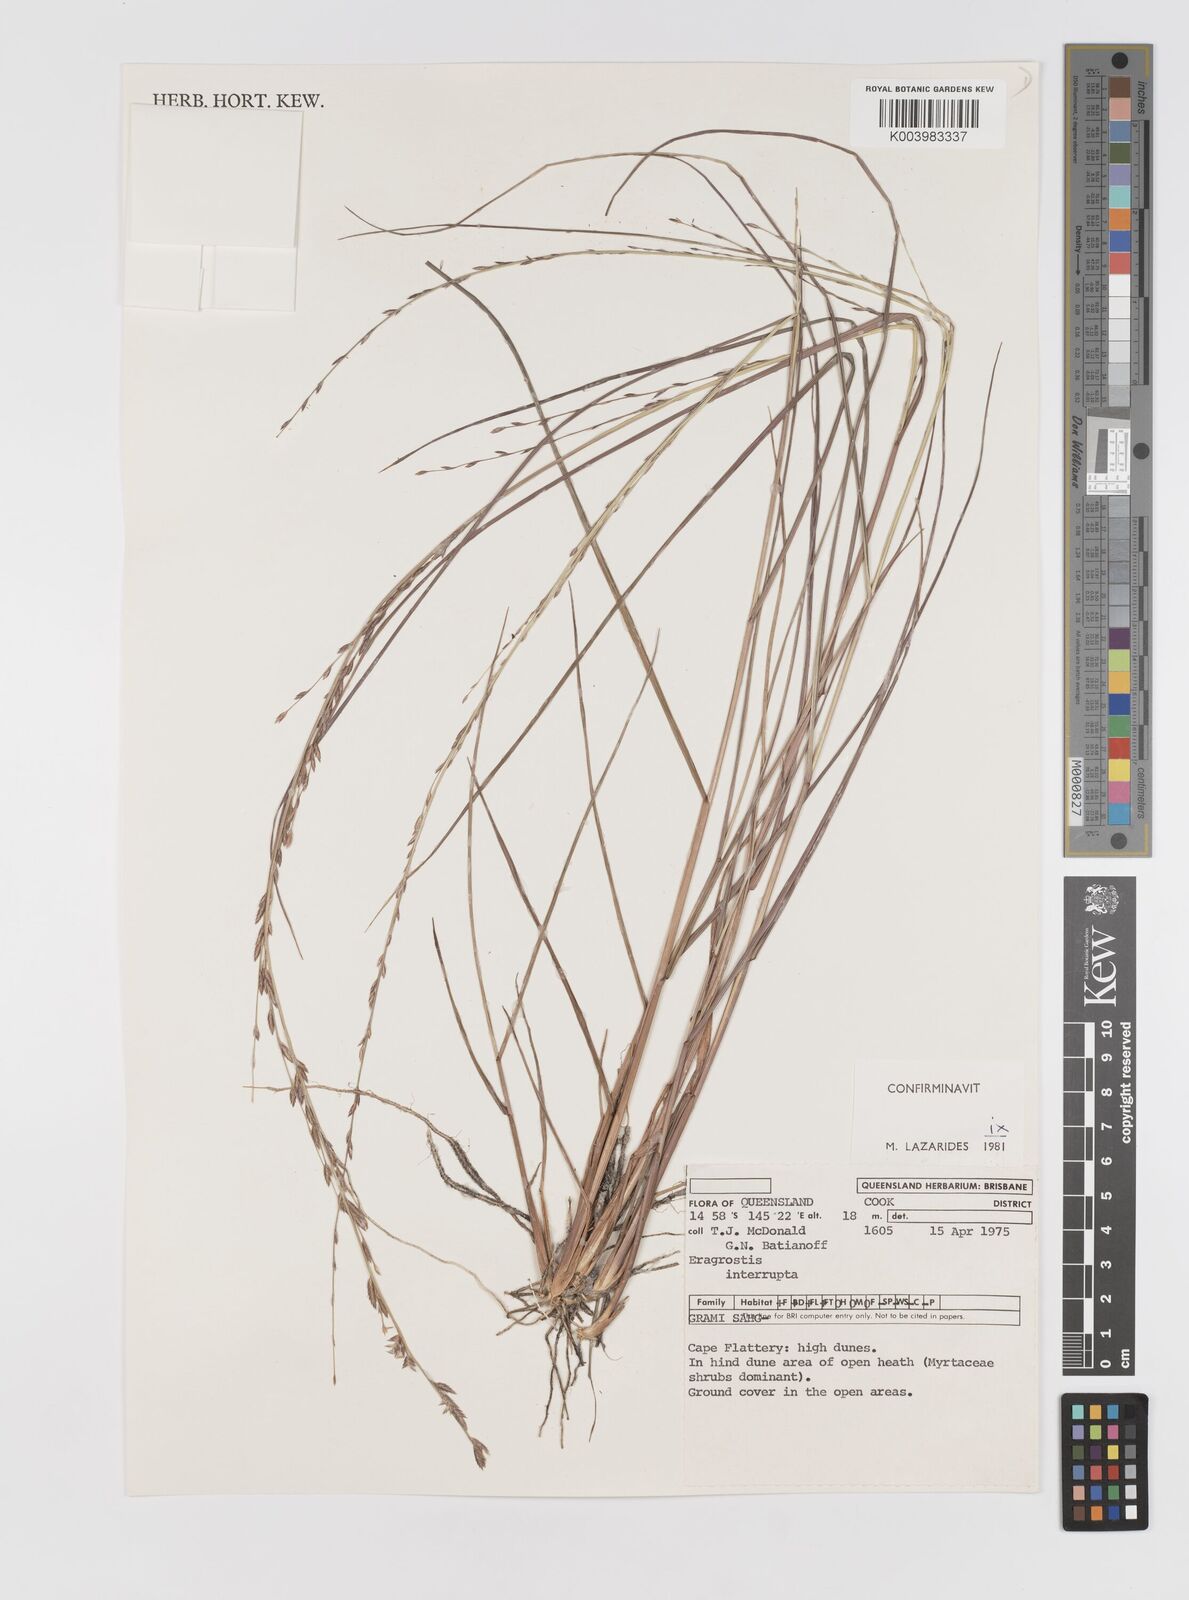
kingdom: Plantae
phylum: Tracheophyta
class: Liliopsida
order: Poales
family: Poaceae
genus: Eragrostis
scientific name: Eragrostis interrupta
